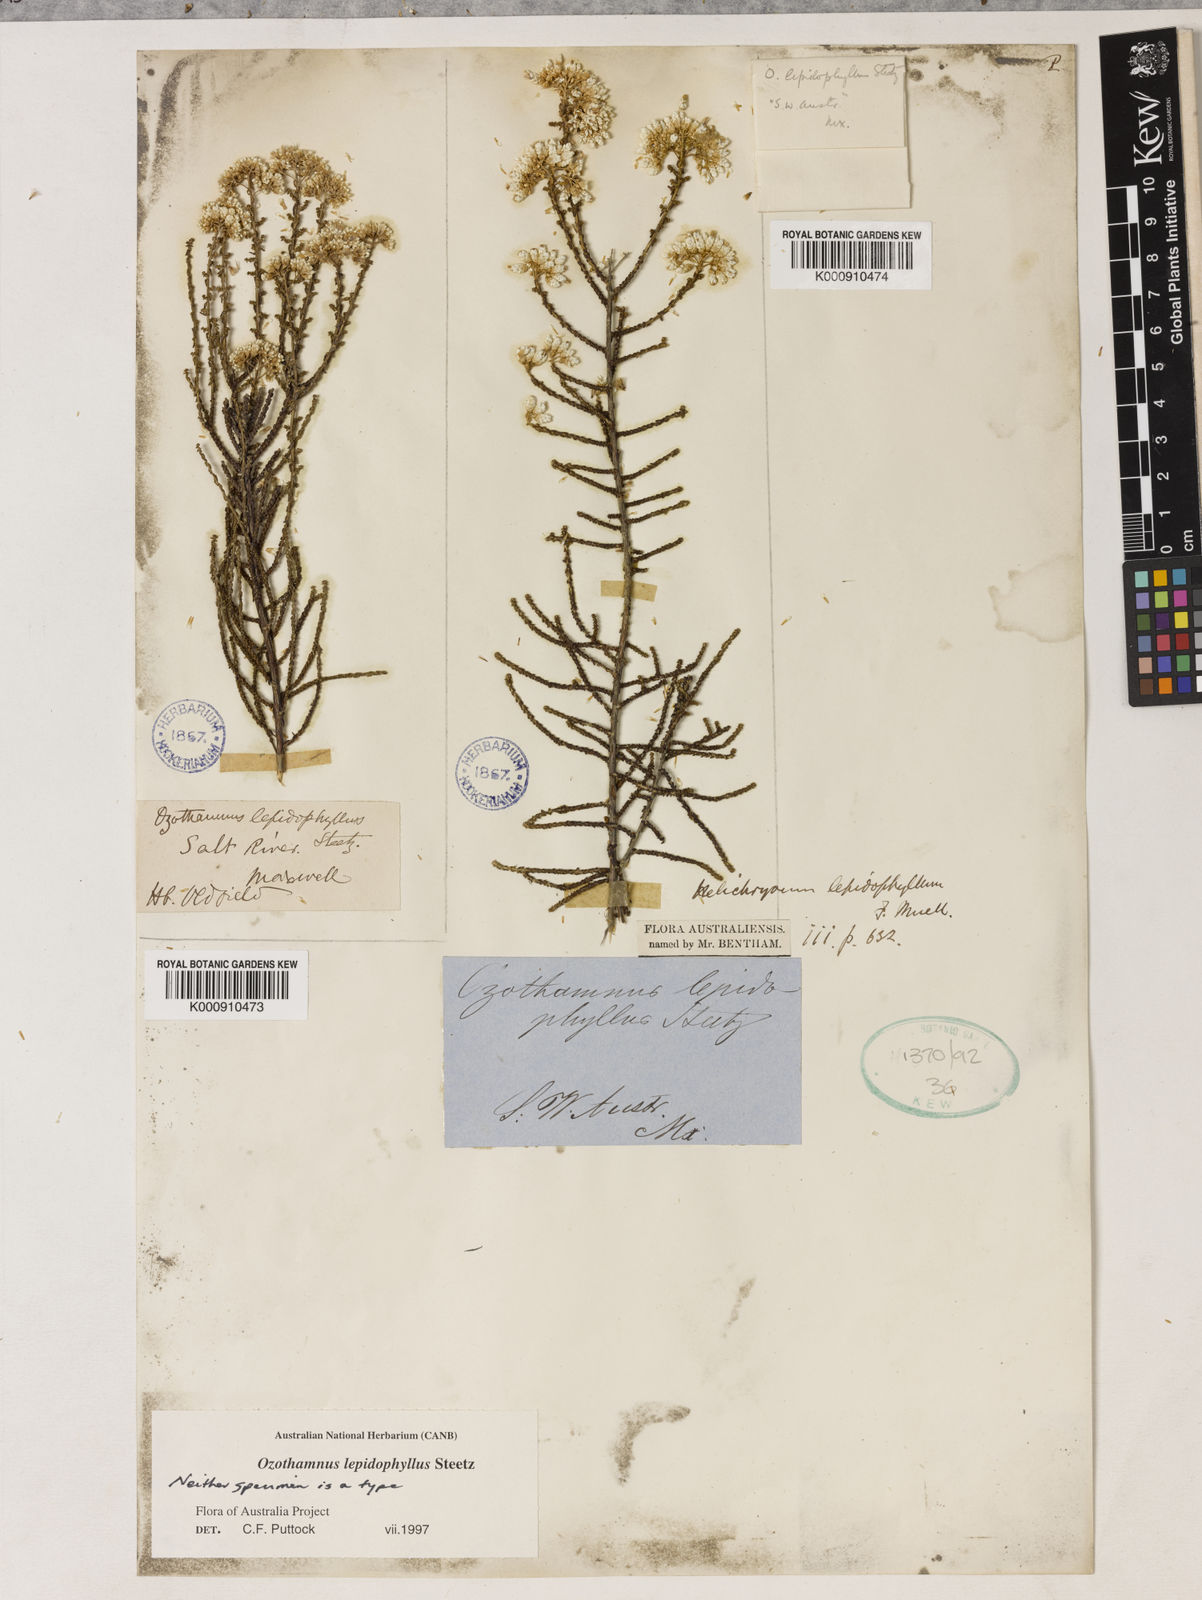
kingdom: Plantae
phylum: Tracheophyta
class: Magnoliopsida
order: Asterales
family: Asteraceae
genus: Ozothamnus
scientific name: Ozothamnus lepidophyllus
